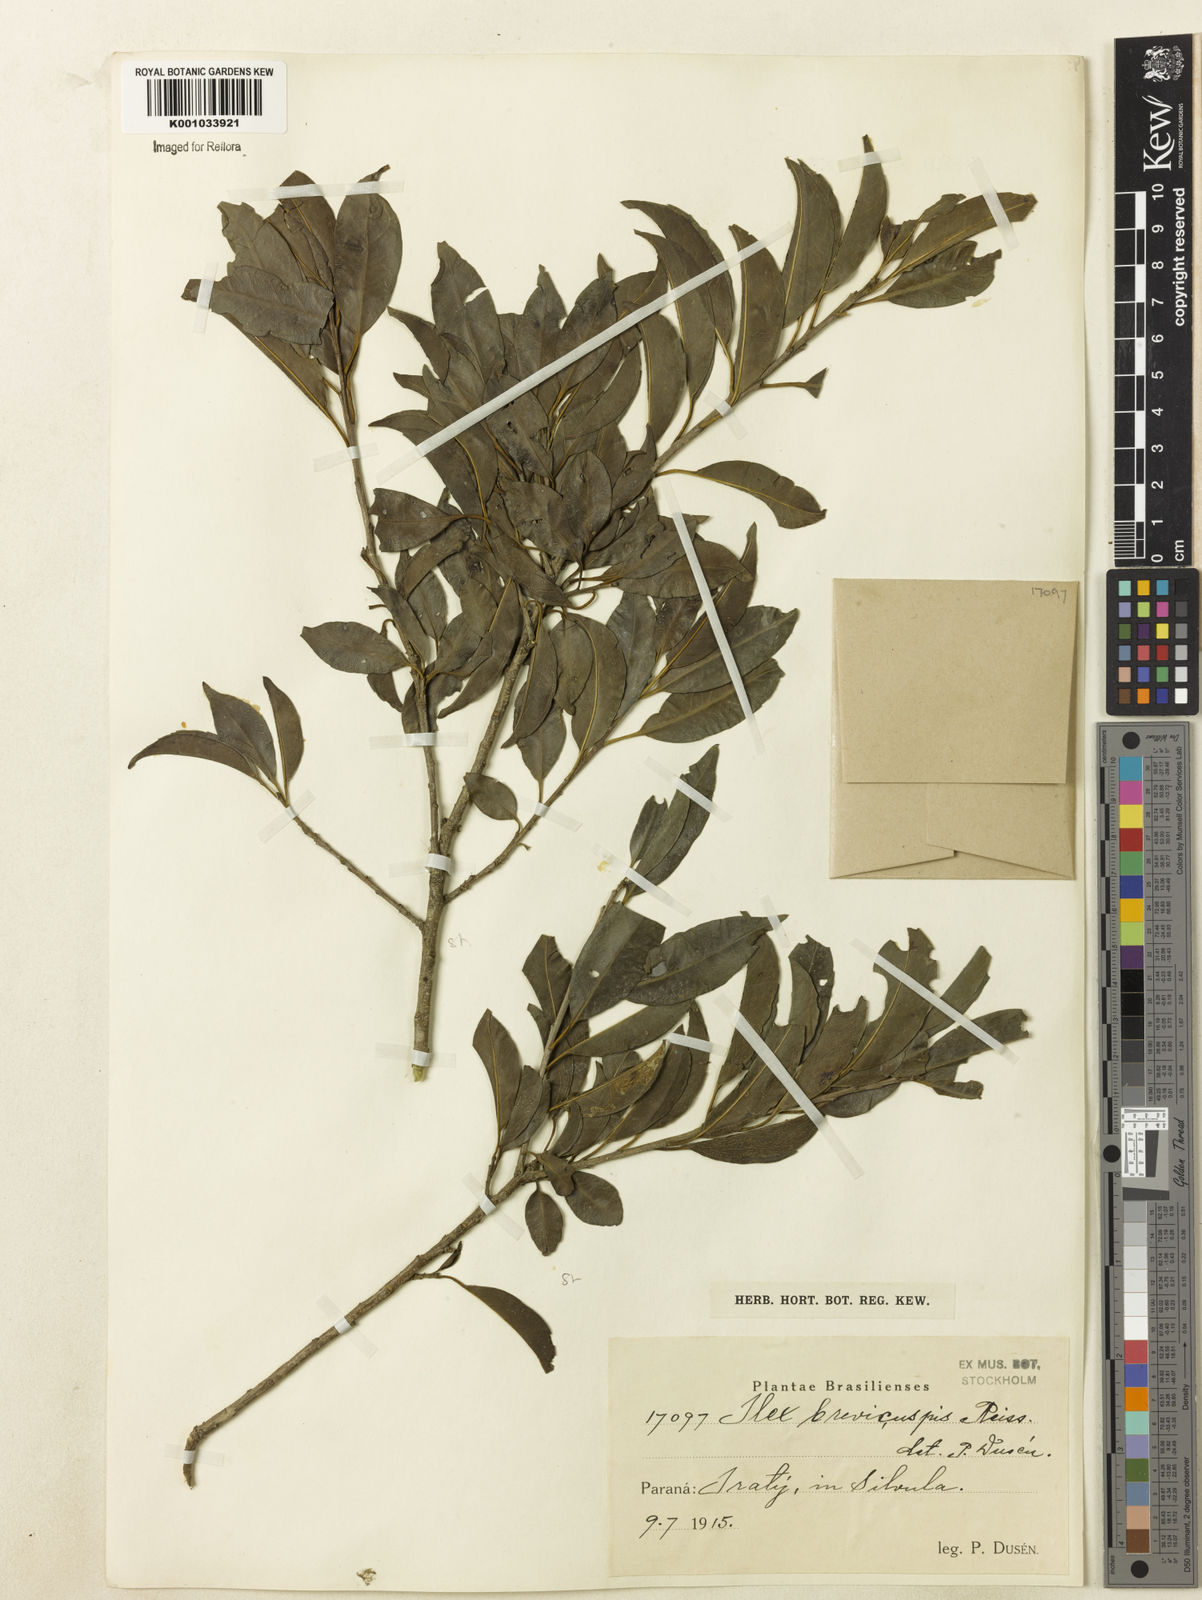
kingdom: Plantae
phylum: Tracheophyta
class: Magnoliopsida
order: Aquifoliales
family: Aquifoliaceae
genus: Ilex
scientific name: Ilex brevicuspis
